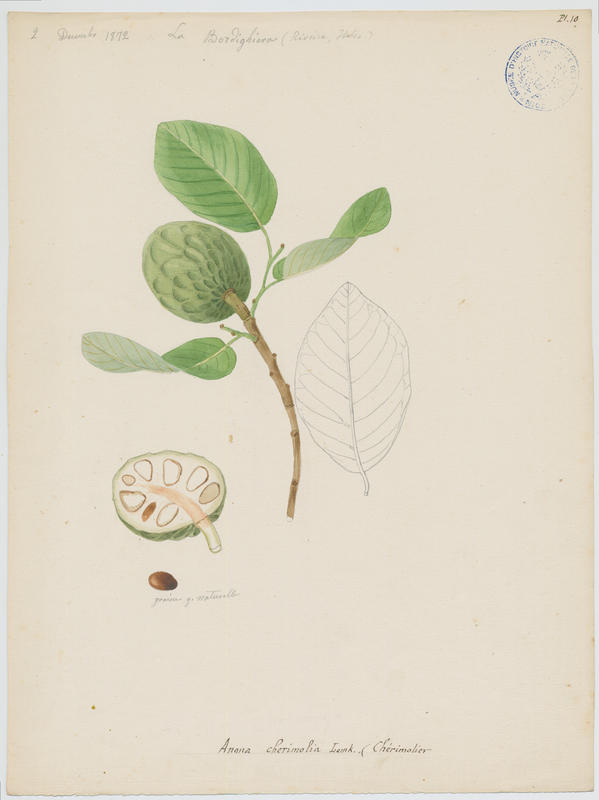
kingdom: Plantae
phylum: Tracheophyta
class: Magnoliopsida
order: Magnoliales
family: Annonaceae
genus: Annona
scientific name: Annona cherimolia
